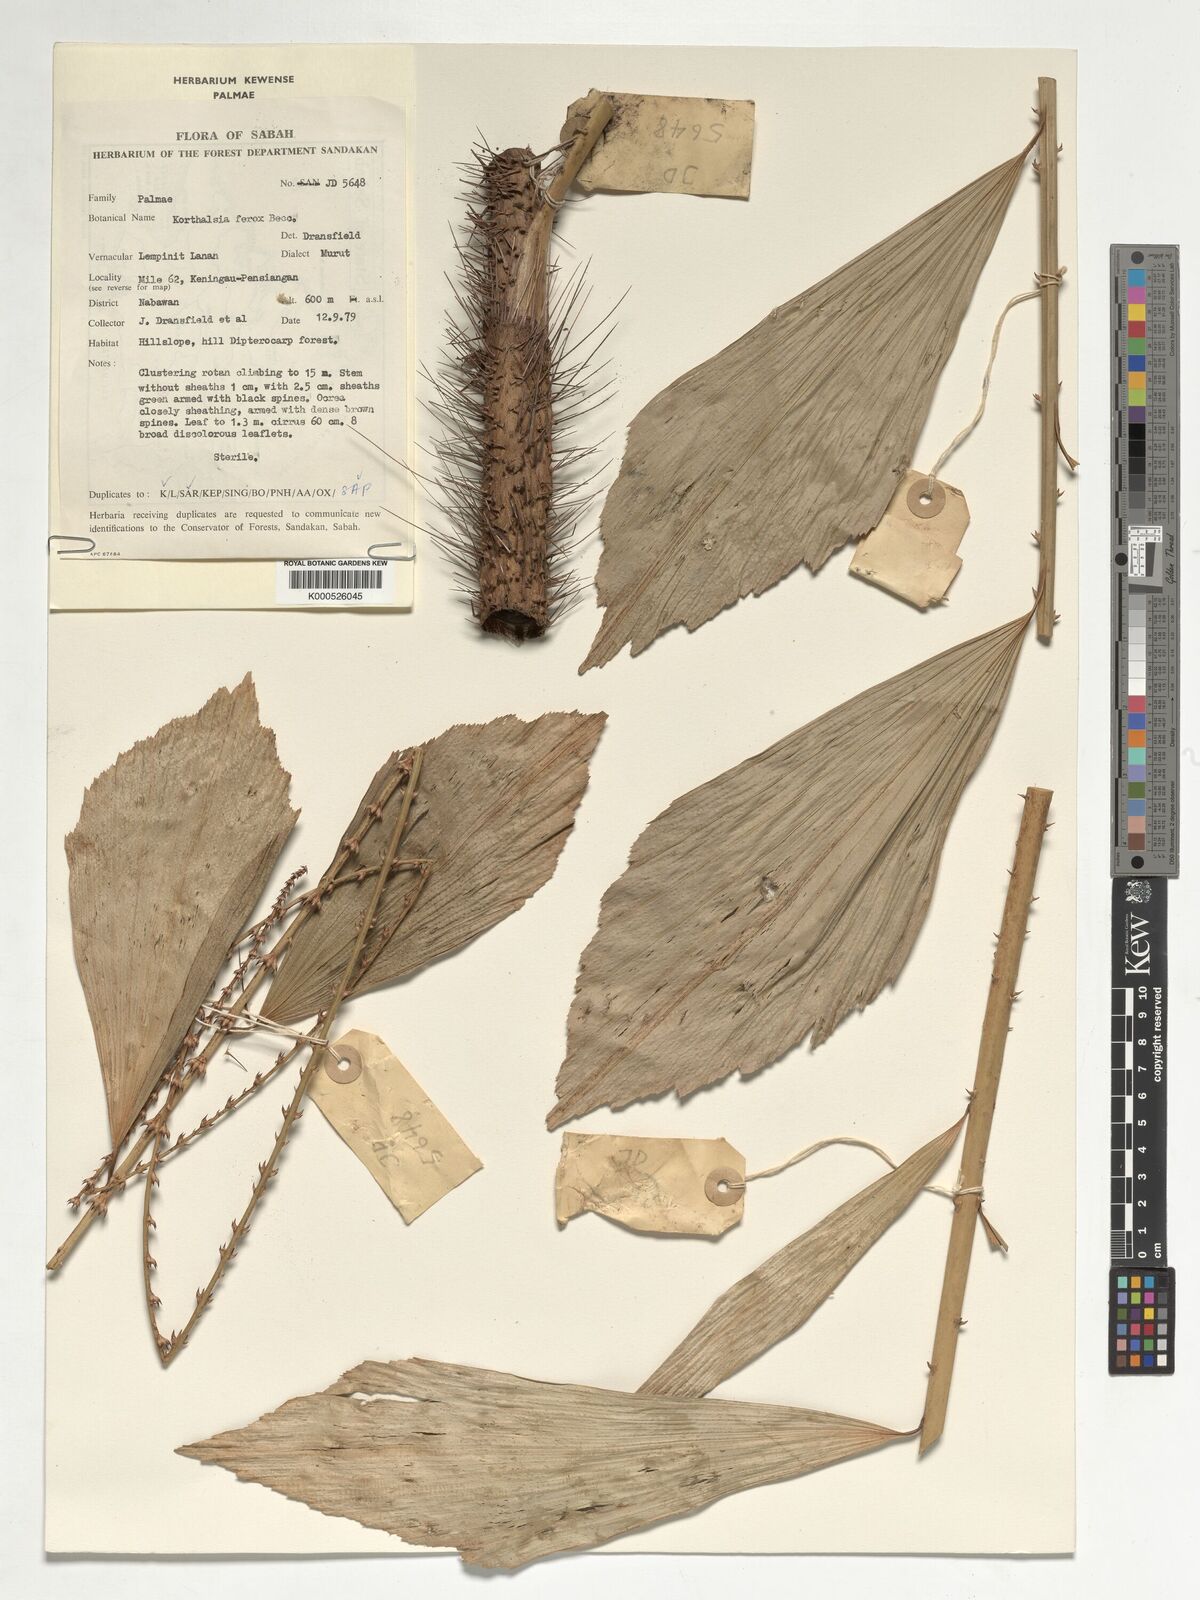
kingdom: Plantae
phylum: Tracheophyta
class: Liliopsida
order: Arecales
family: Arecaceae
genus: Korthalsia
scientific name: Korthalsia ferox
